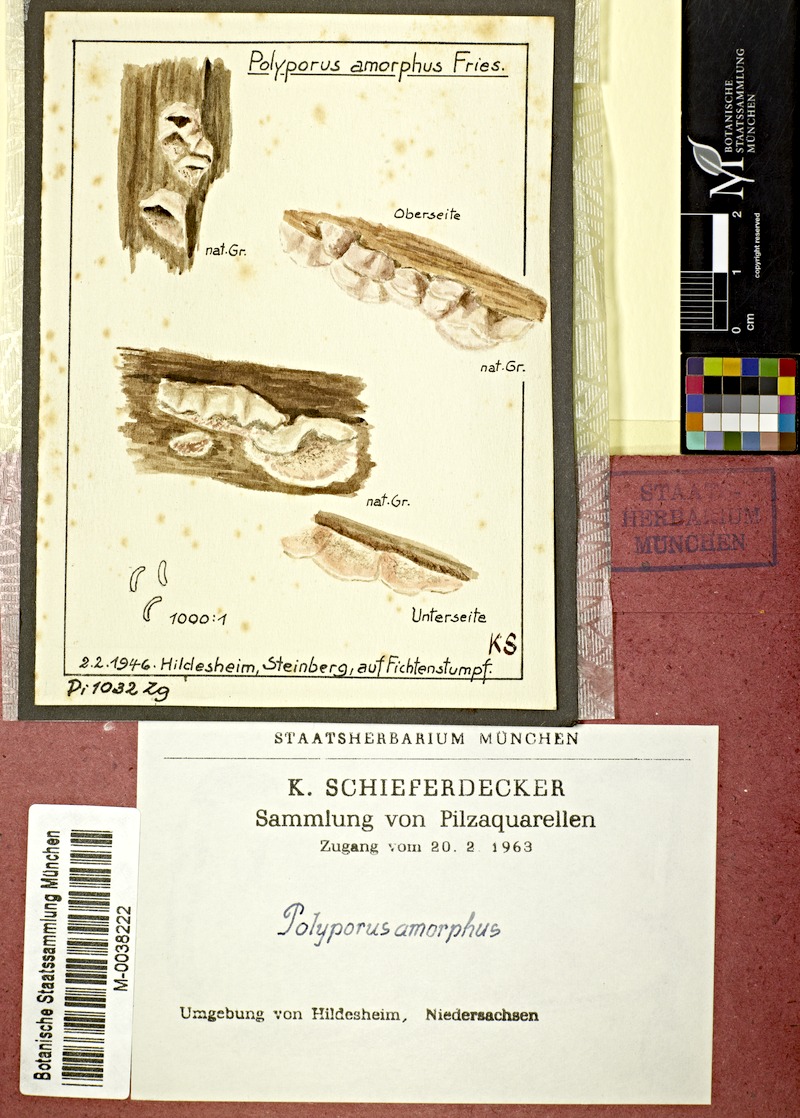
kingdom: Fungi
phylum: Basidiomycota
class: Agaricomycetes
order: Polyporales
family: Incrustoporiaceae
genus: Skeletocutis
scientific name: Skeletocutis amorpha
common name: Rusty crust
